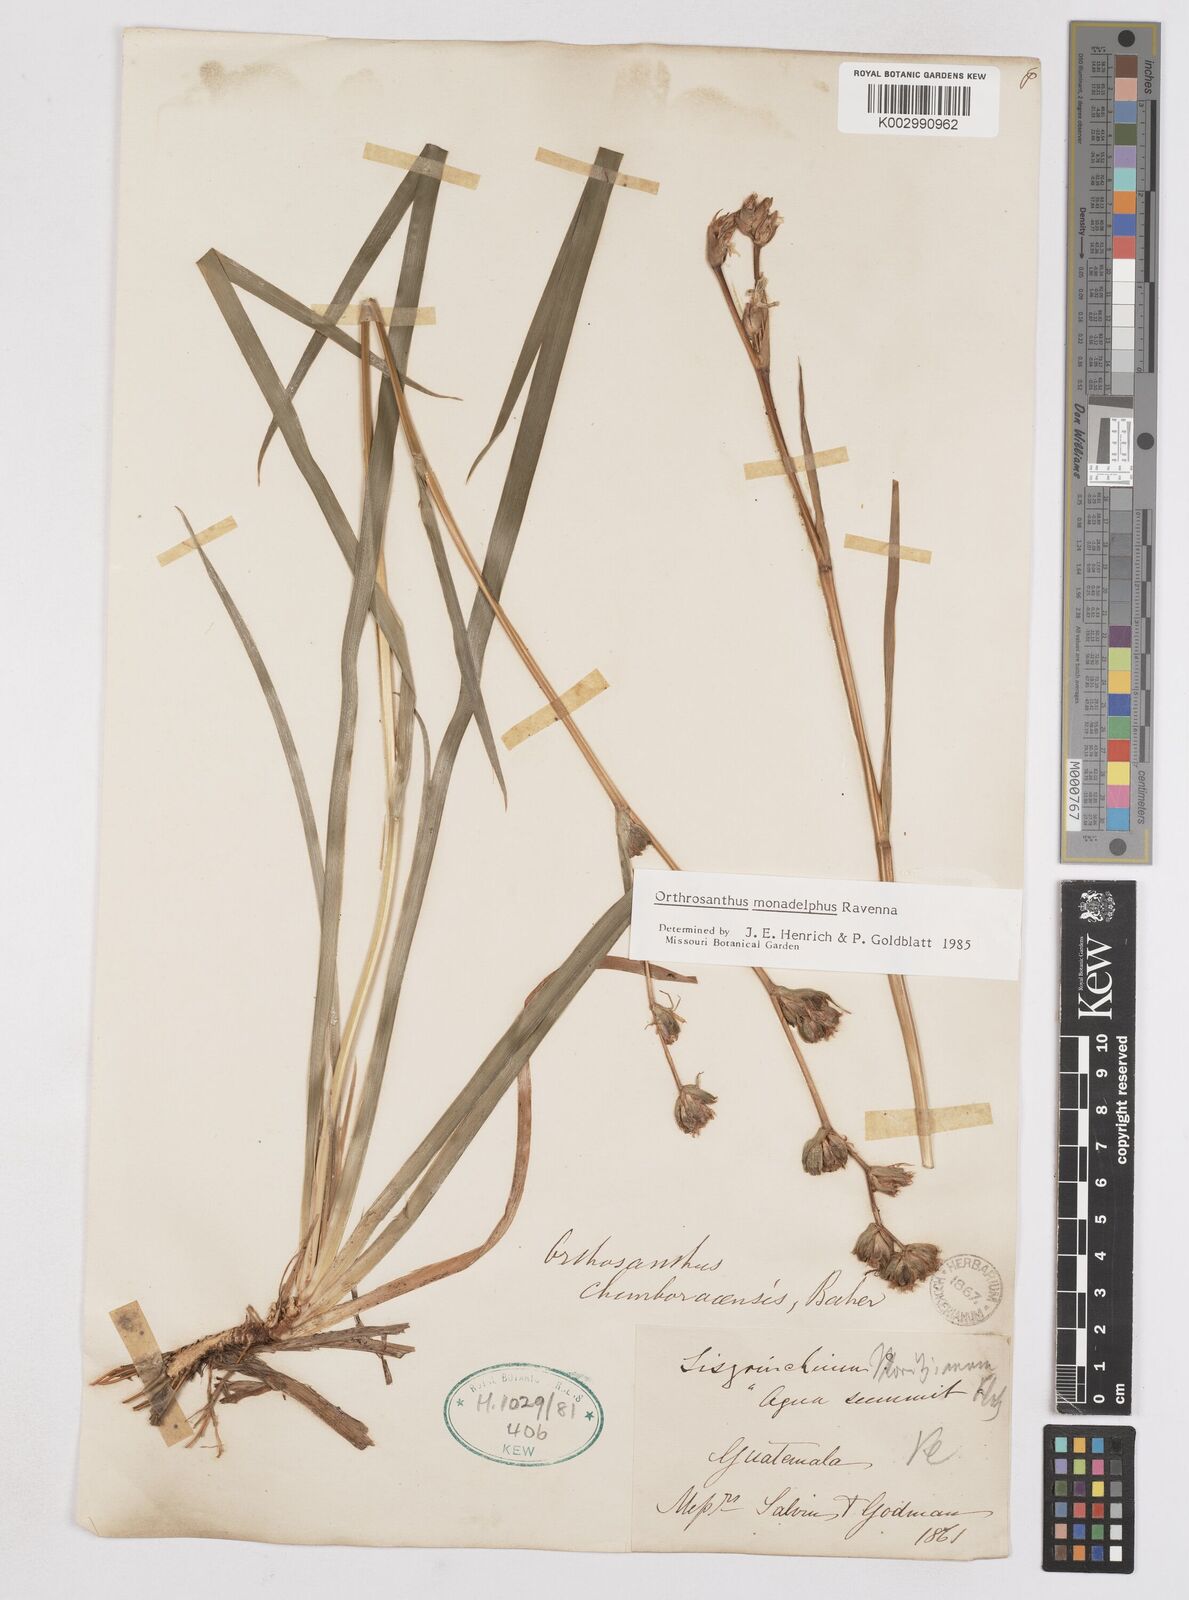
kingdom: Plantae
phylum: Tracheophyta
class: Liliopsida
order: Asparagales
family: Iridaceae
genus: Orthrosanthus
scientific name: Orthrosanthus monadelphus
